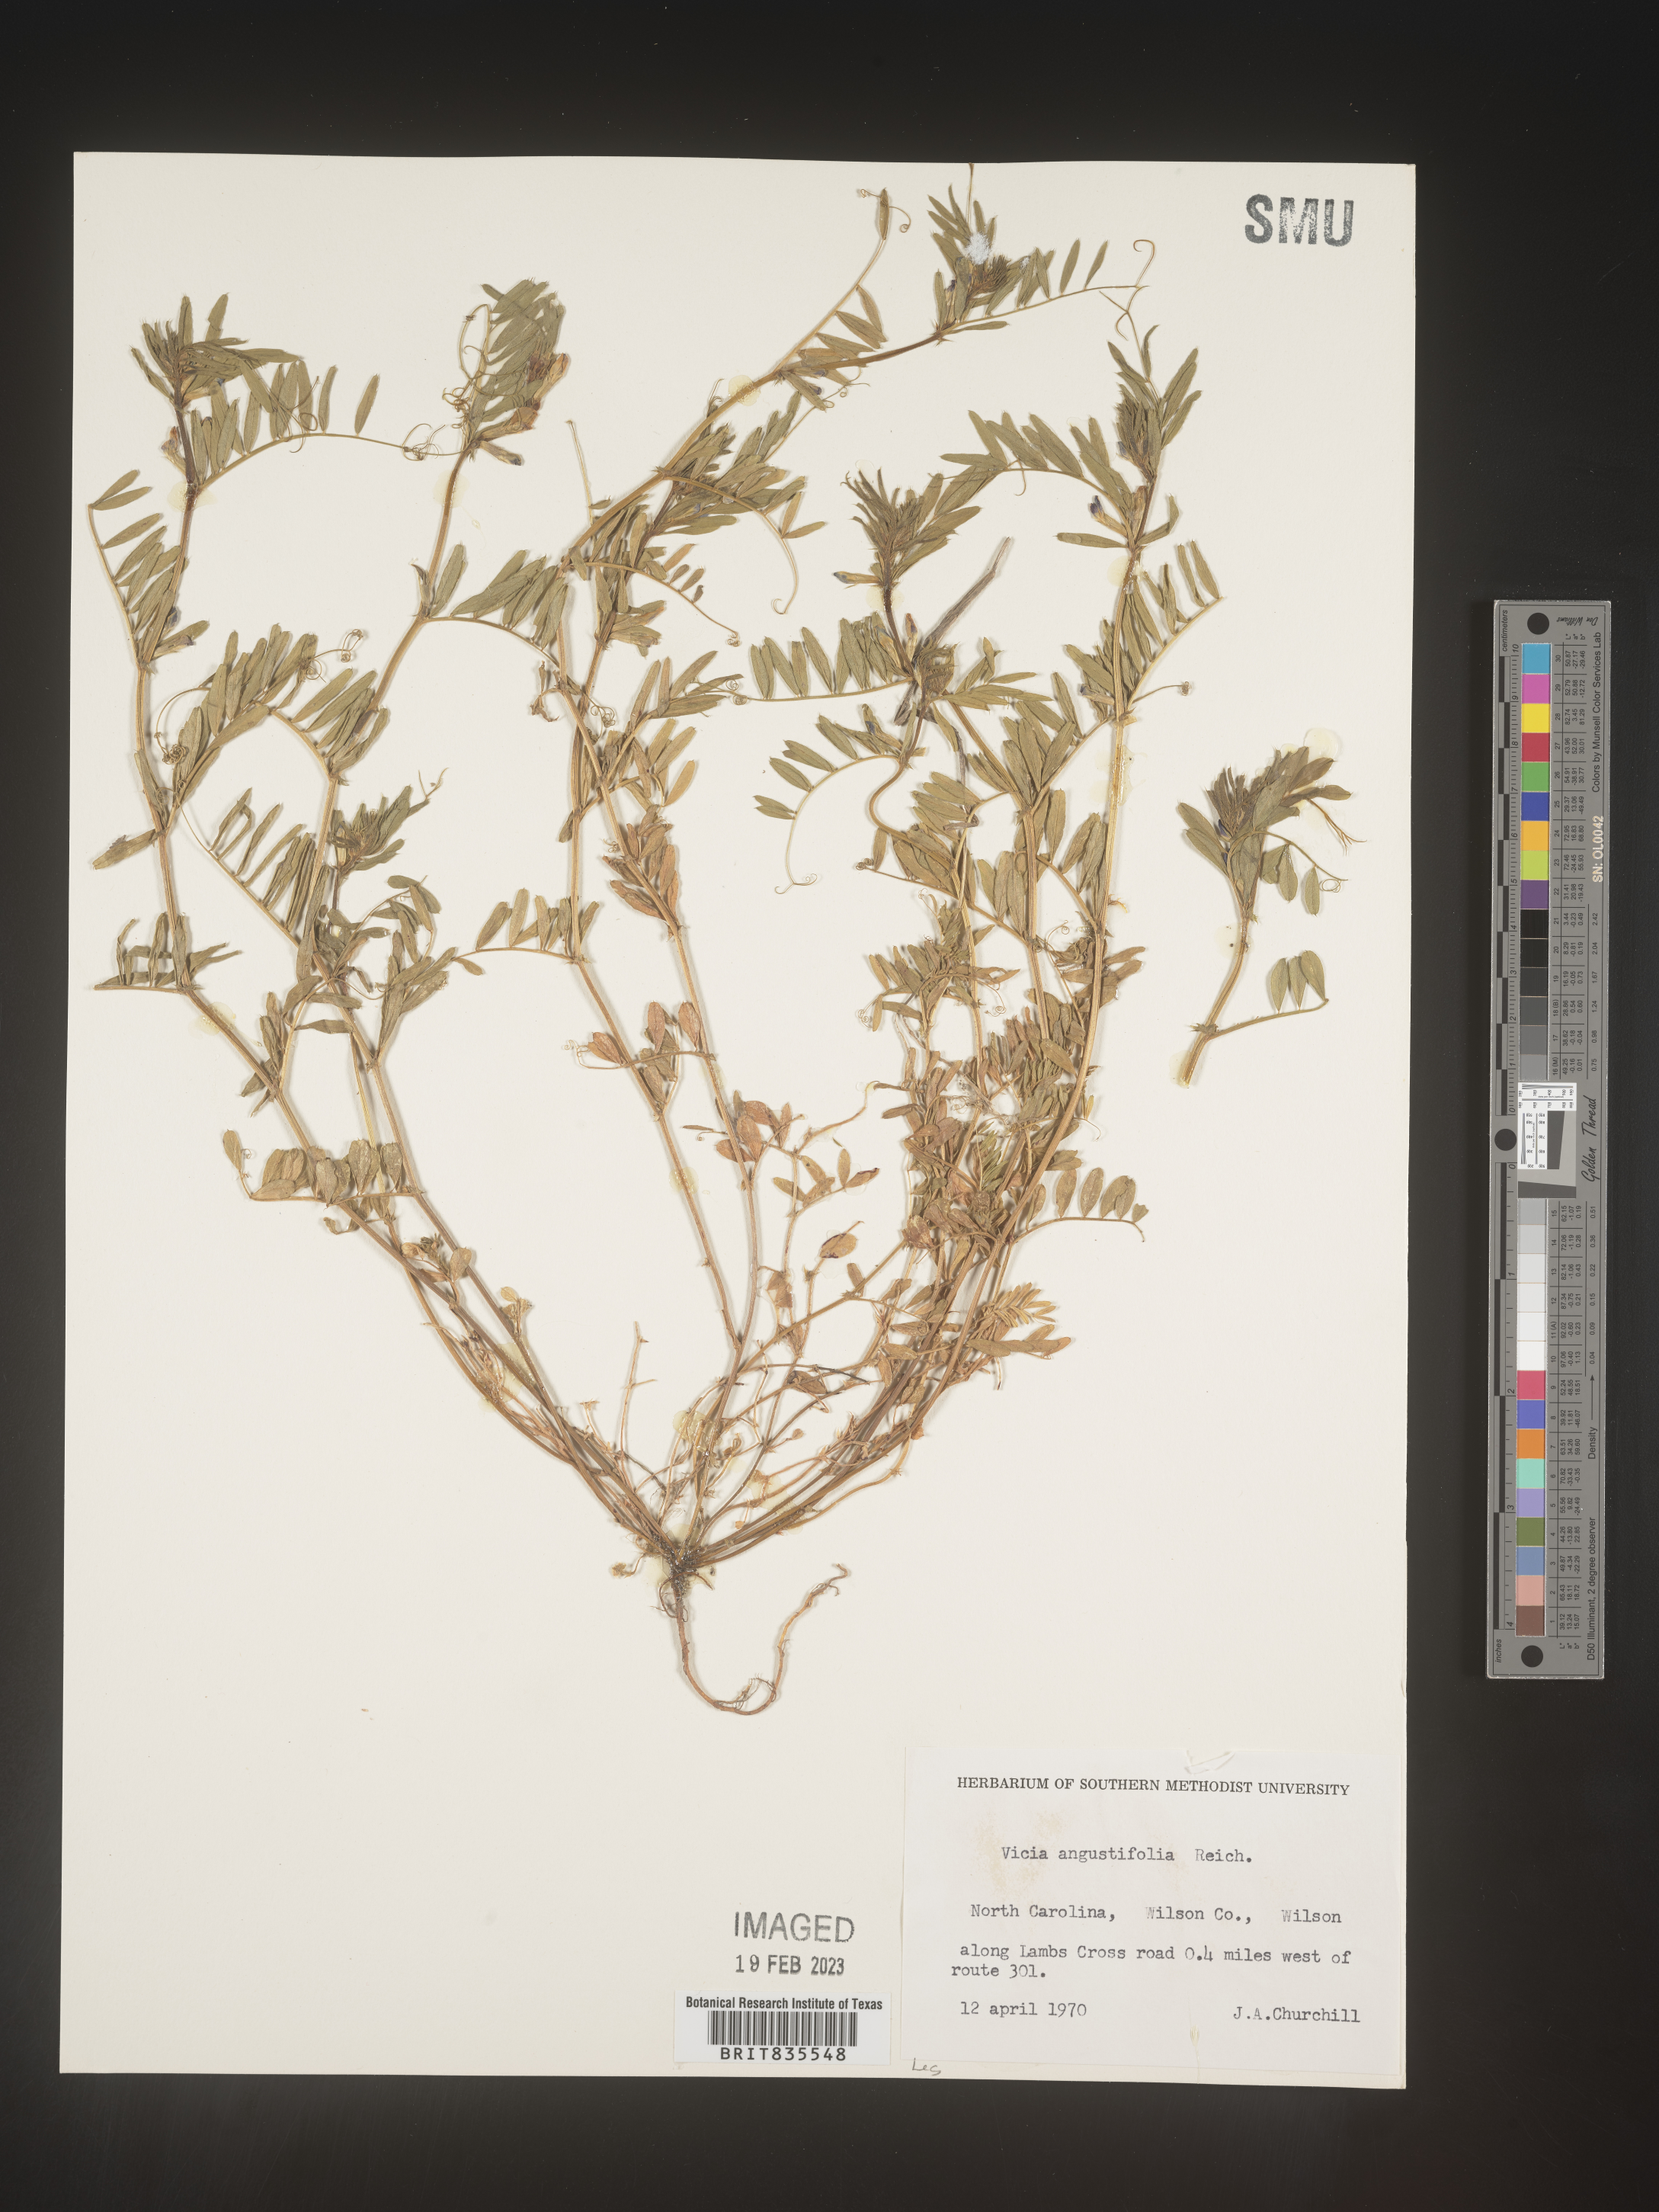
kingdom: Plantae
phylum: Tracheophyta
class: Magnoliopsida
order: Fabales
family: Fabaceae
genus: Vicia
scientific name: Vicia americana
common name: American vetch
